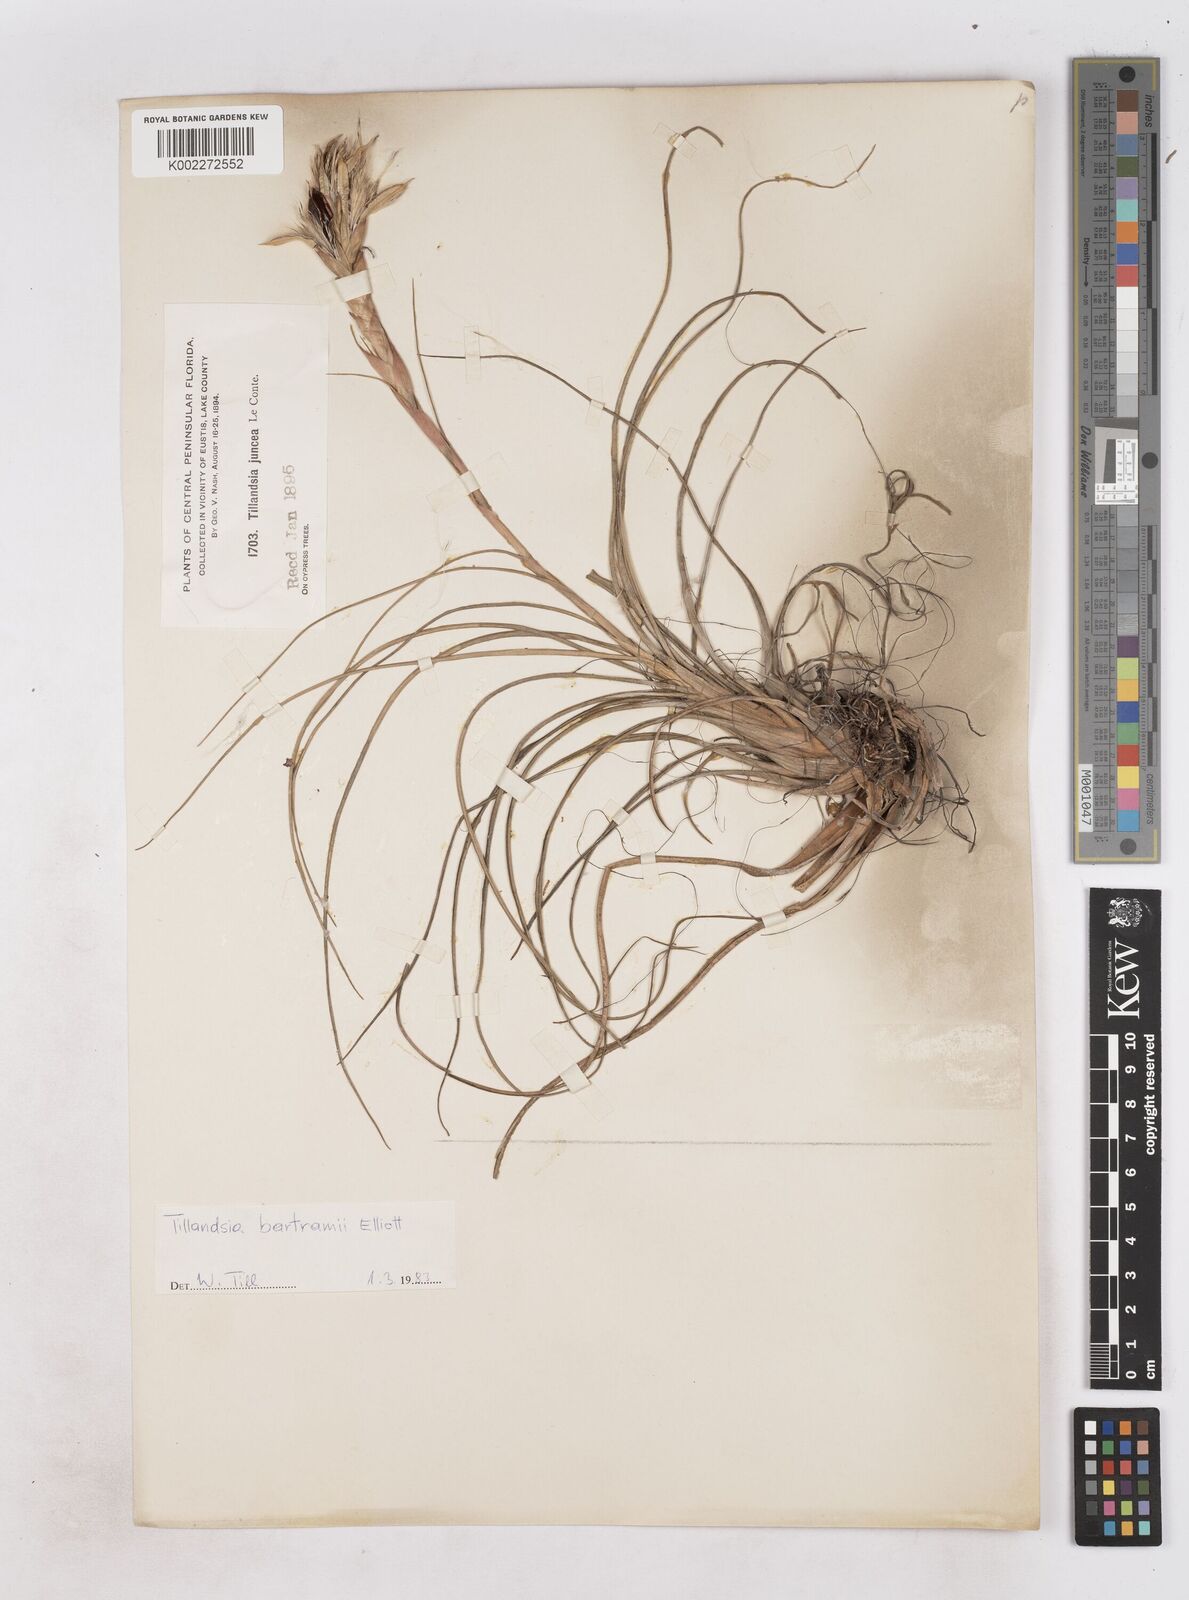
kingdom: Plantae
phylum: Tracheophyta
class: Liliopsida
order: Poales
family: Bromeliaceae
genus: Tillandsia
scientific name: Tillandsia bartramii
